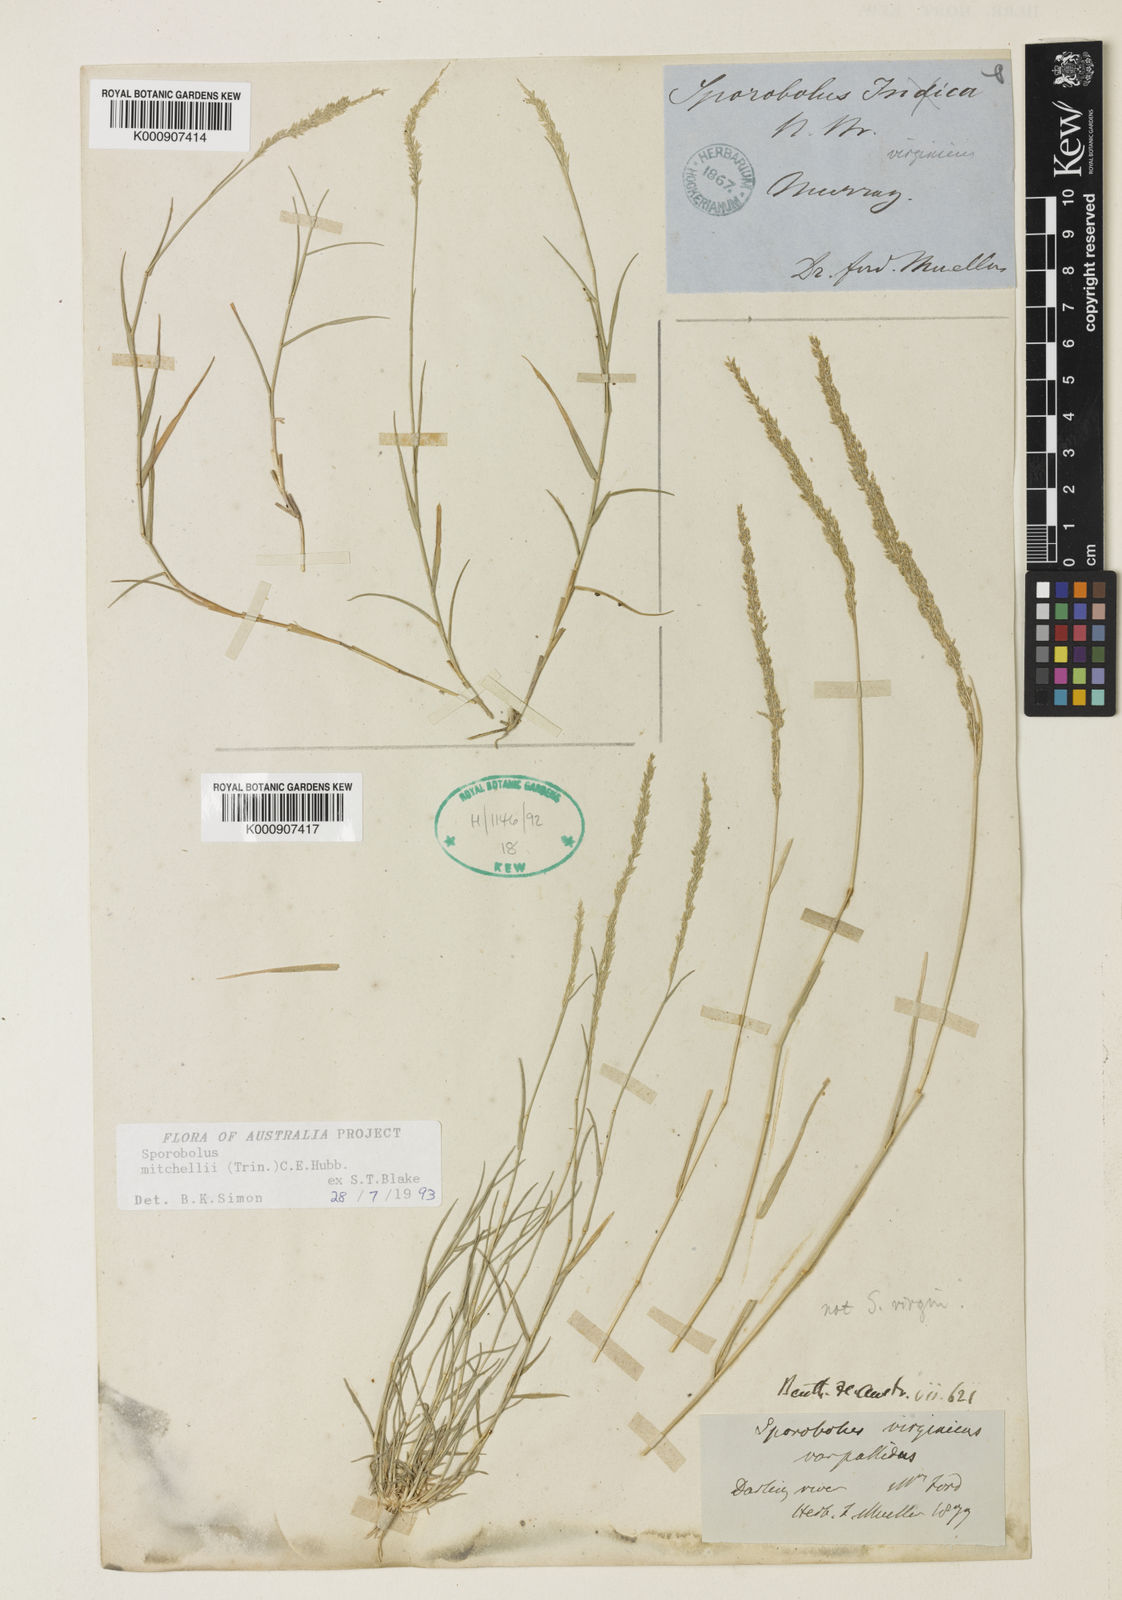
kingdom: Plantae
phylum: Tracheophyta
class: Liliopsida
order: Poales
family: Poaceae
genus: Sporobolus
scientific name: Sporobolus mitchellii
